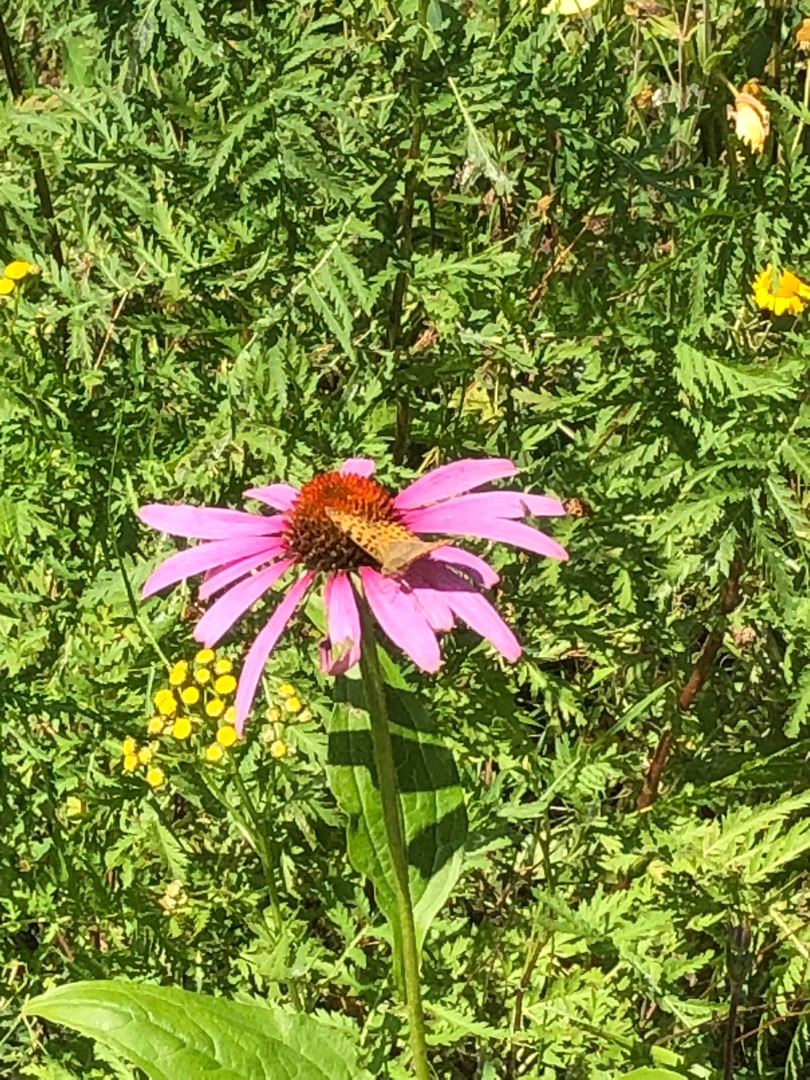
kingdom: Animalia
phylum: Arthropoda
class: Insecta
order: Lepidoptera
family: Nymphalidae
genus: Issoria
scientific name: Issoria lathonia
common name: Storplettet perlemorsommerfugl
